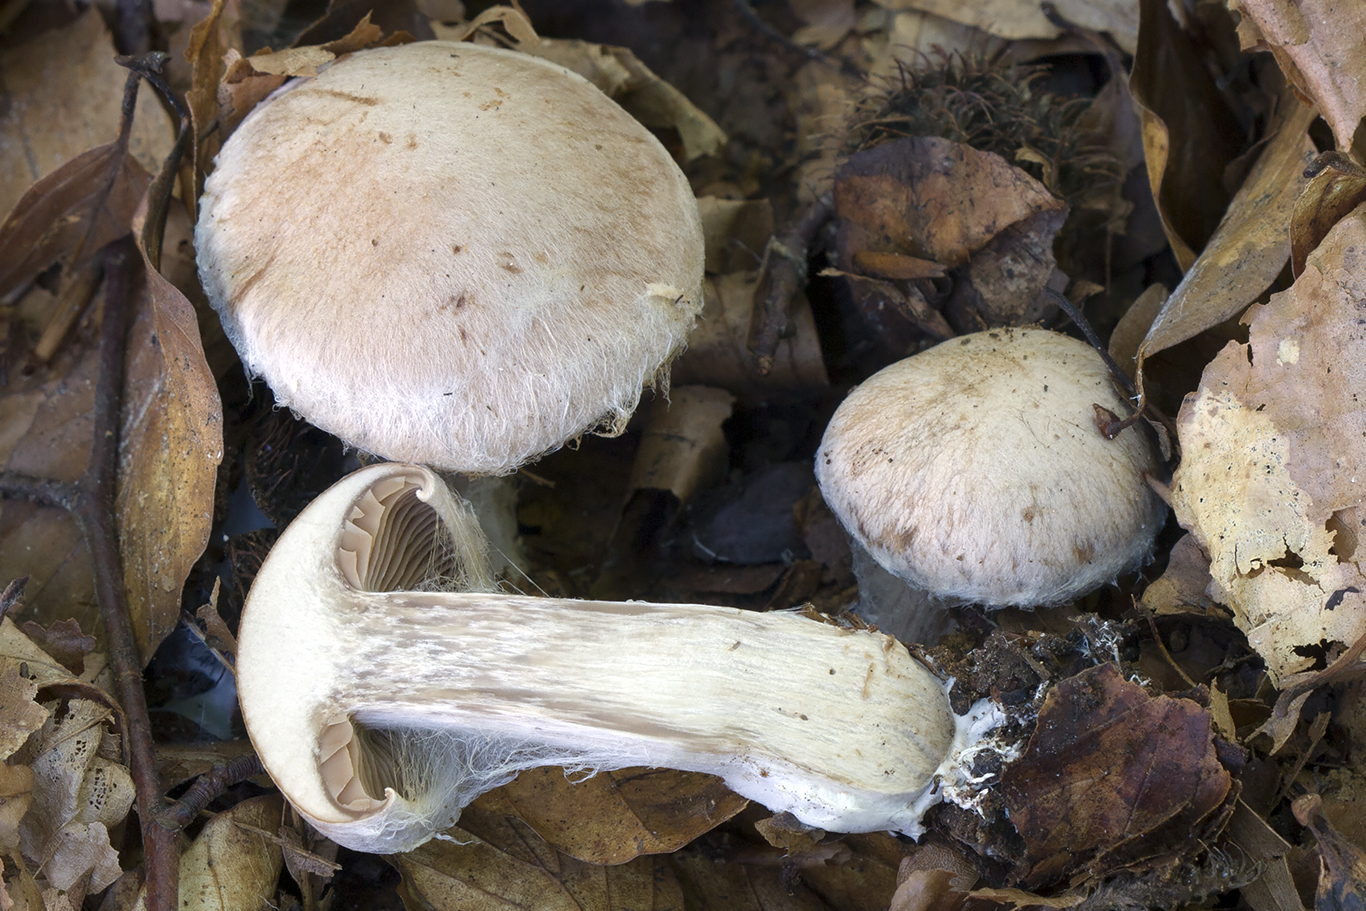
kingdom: Fungi
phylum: Basidiomycota
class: Agaricomycetes
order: Agaricales
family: Cortinariaceae
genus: Cortinarius
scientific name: Cortinarius
